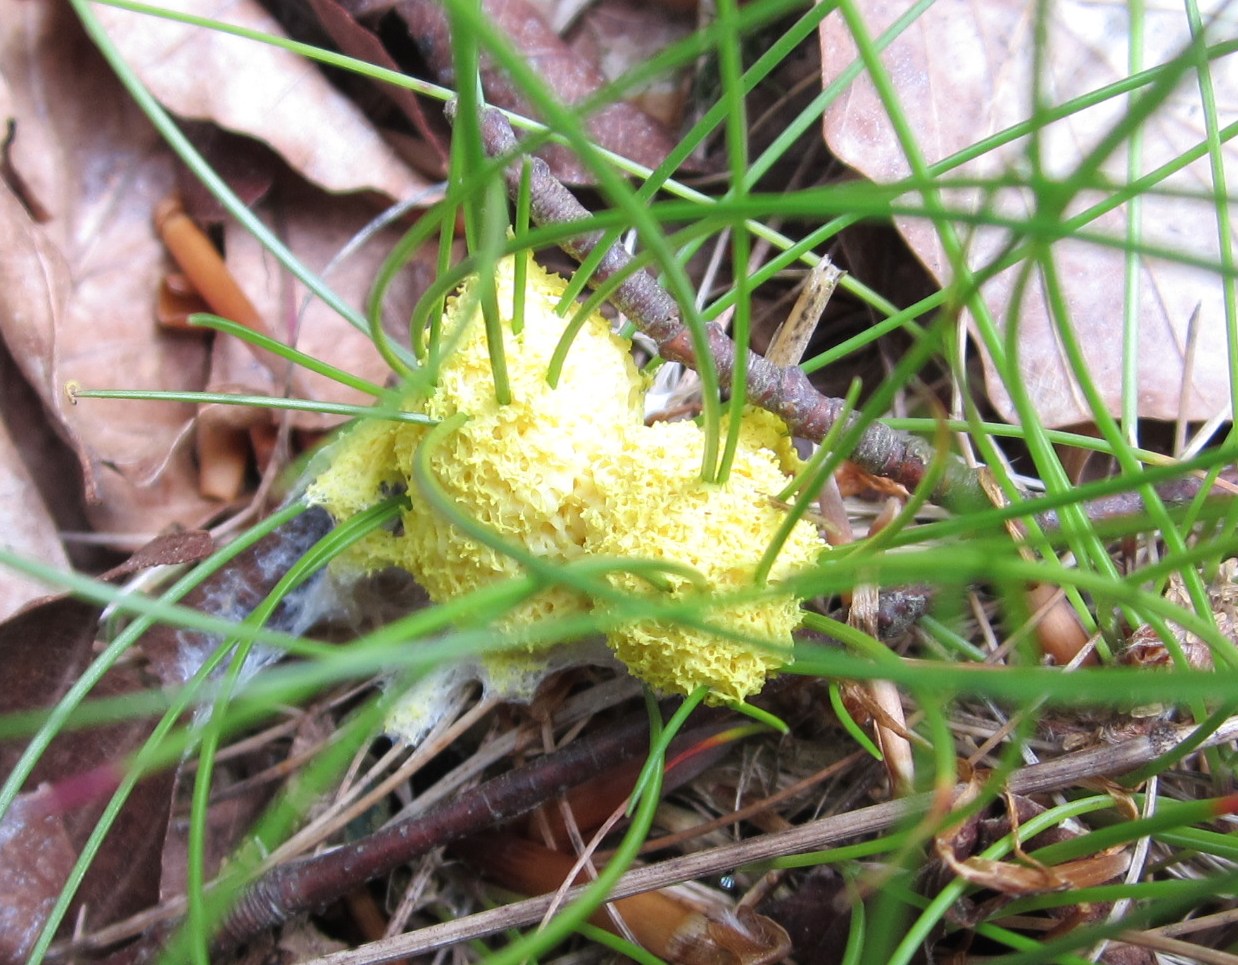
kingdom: Protozoa
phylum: Mycetozoa
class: Myxomycetes
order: Physarales
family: Physaraceae
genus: Fuligo
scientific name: Fuligo septica
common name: gul troldsmør
